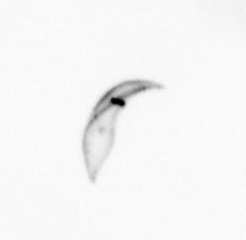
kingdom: Chromista
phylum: Ochrophyta
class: Bacillariophyceae
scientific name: Bacillariophyceae
